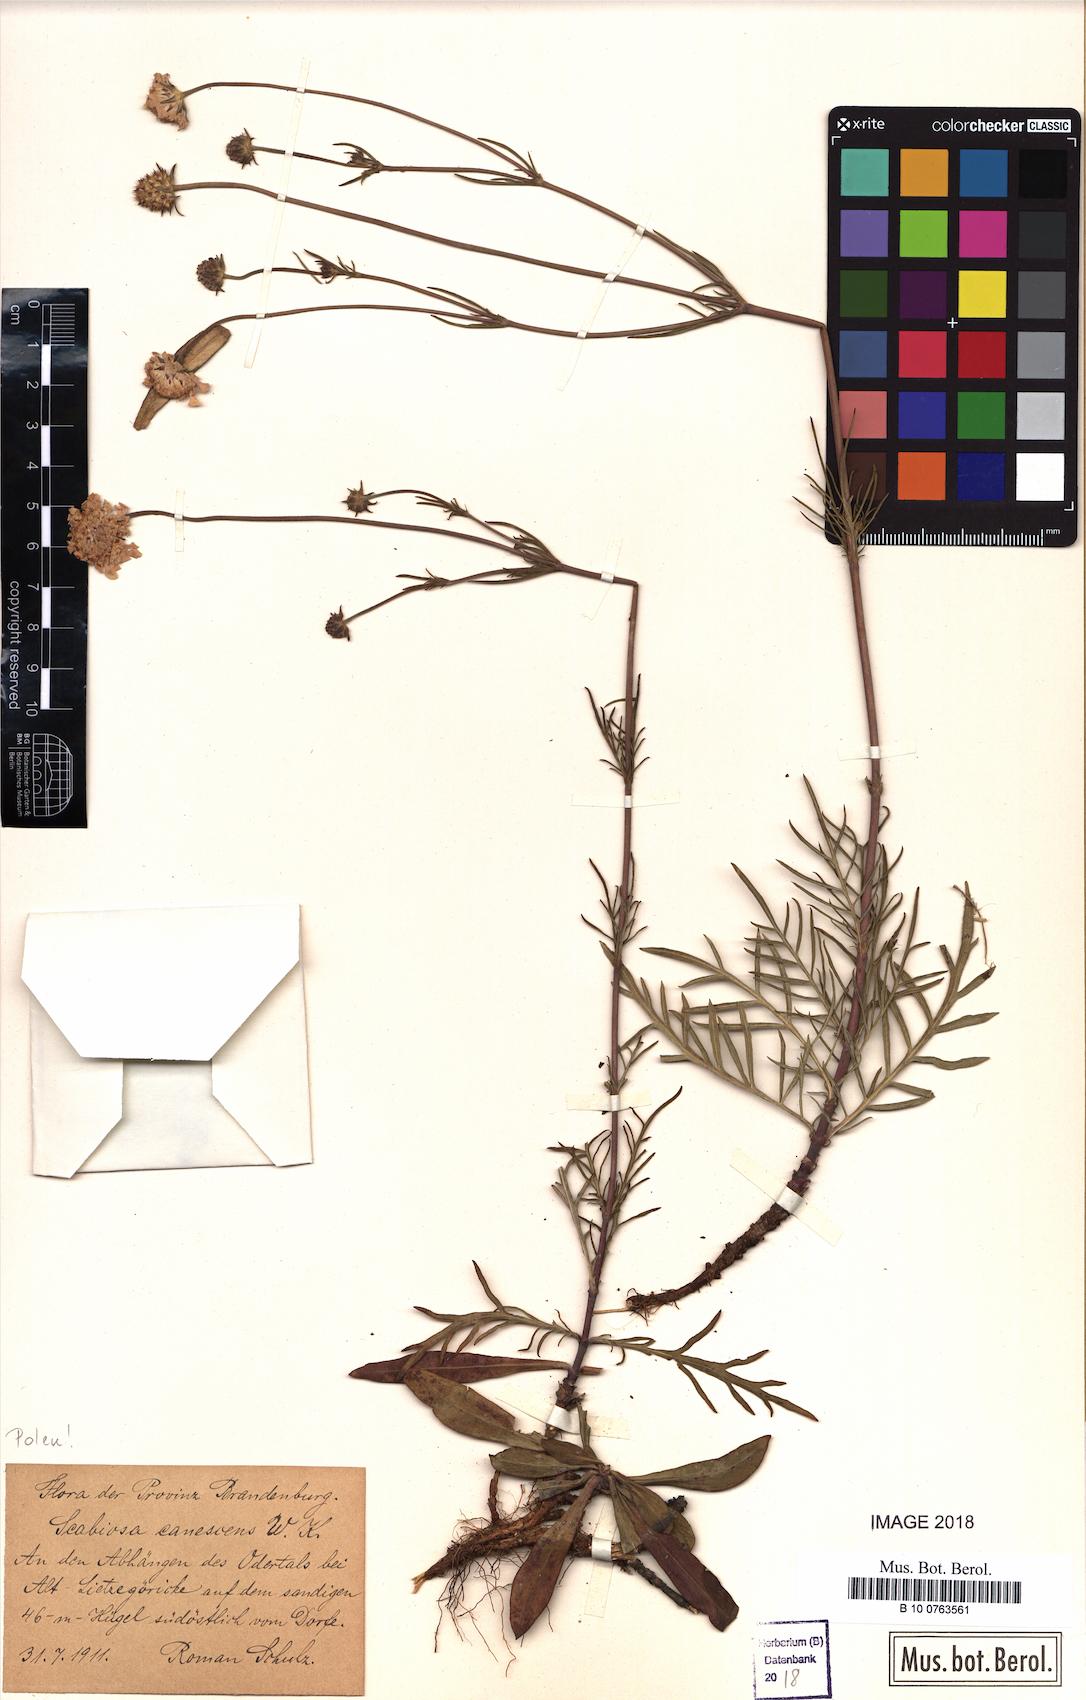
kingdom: Plantae
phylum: Tracheophyta
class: Magnoliopsida
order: Dipsacales
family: Caprifoliaceae
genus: Scabiosa
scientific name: Scabiosa canescens
